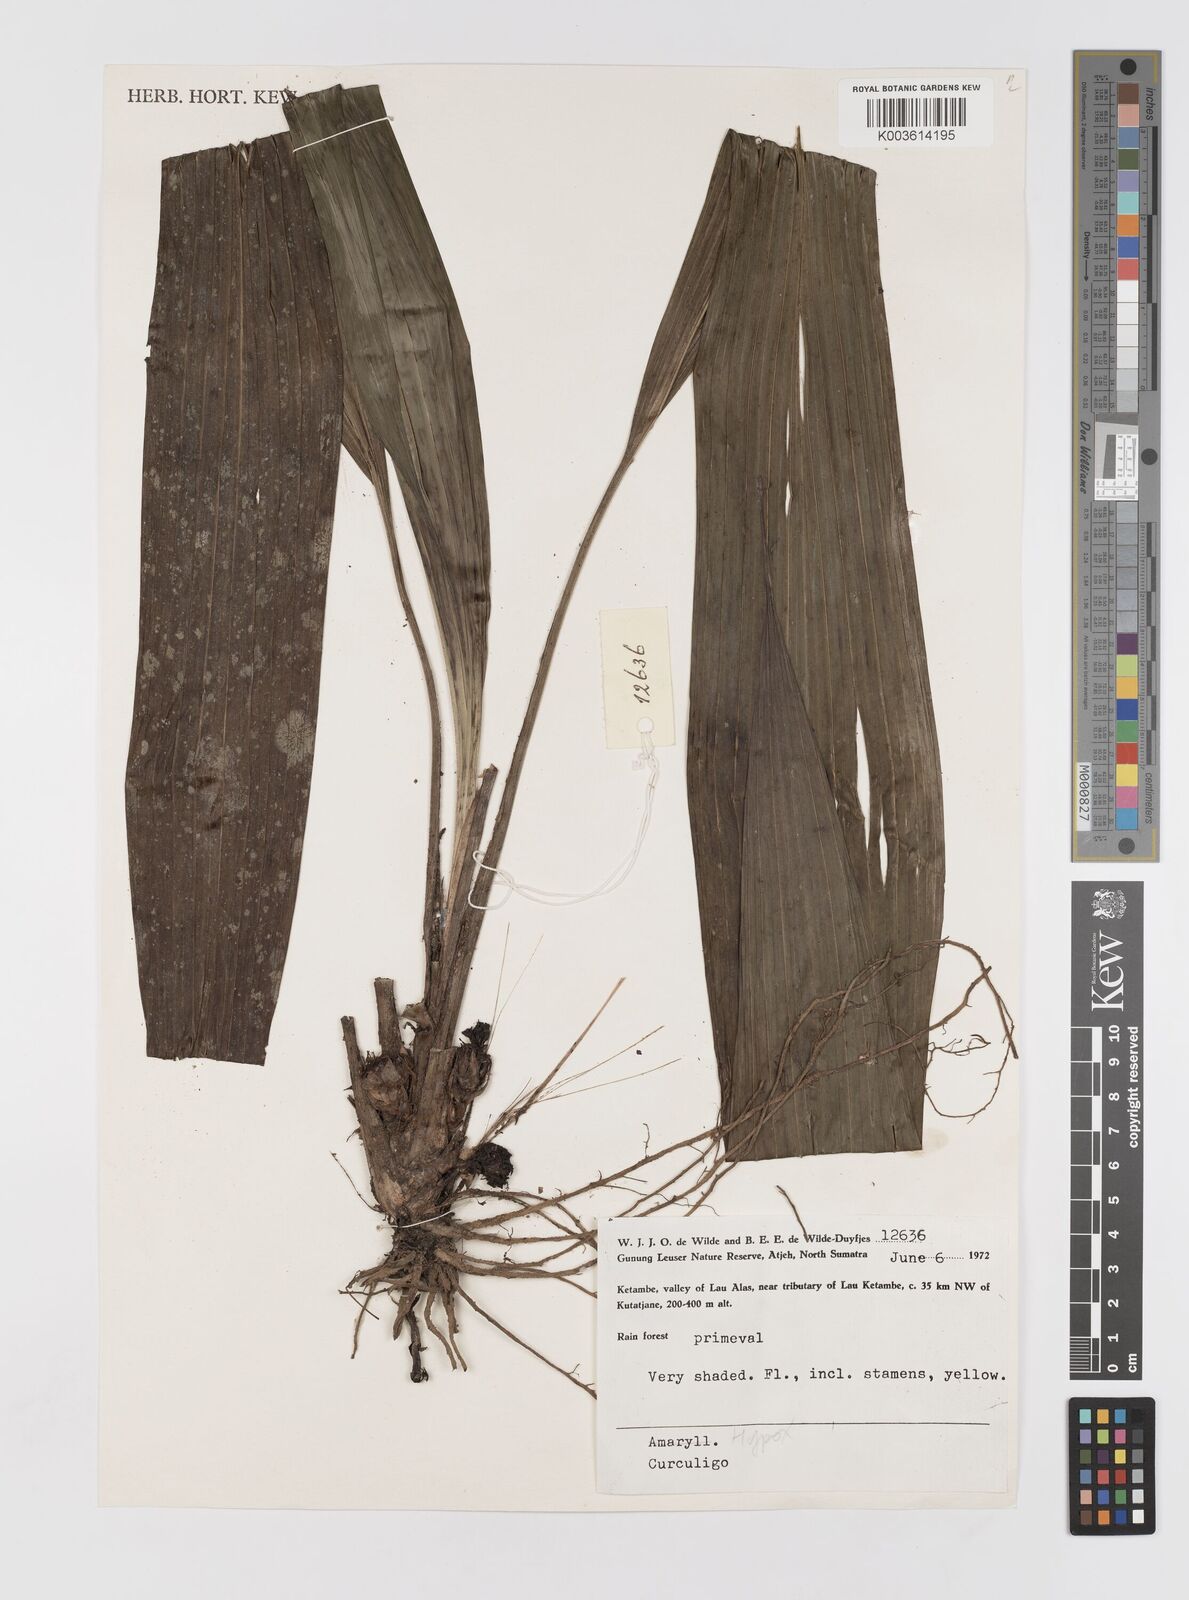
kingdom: Plantae
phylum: Tracheophyta
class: Liliopsida
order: Asparagales
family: Hypoxidaceae
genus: Curculigo
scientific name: Curculigo
